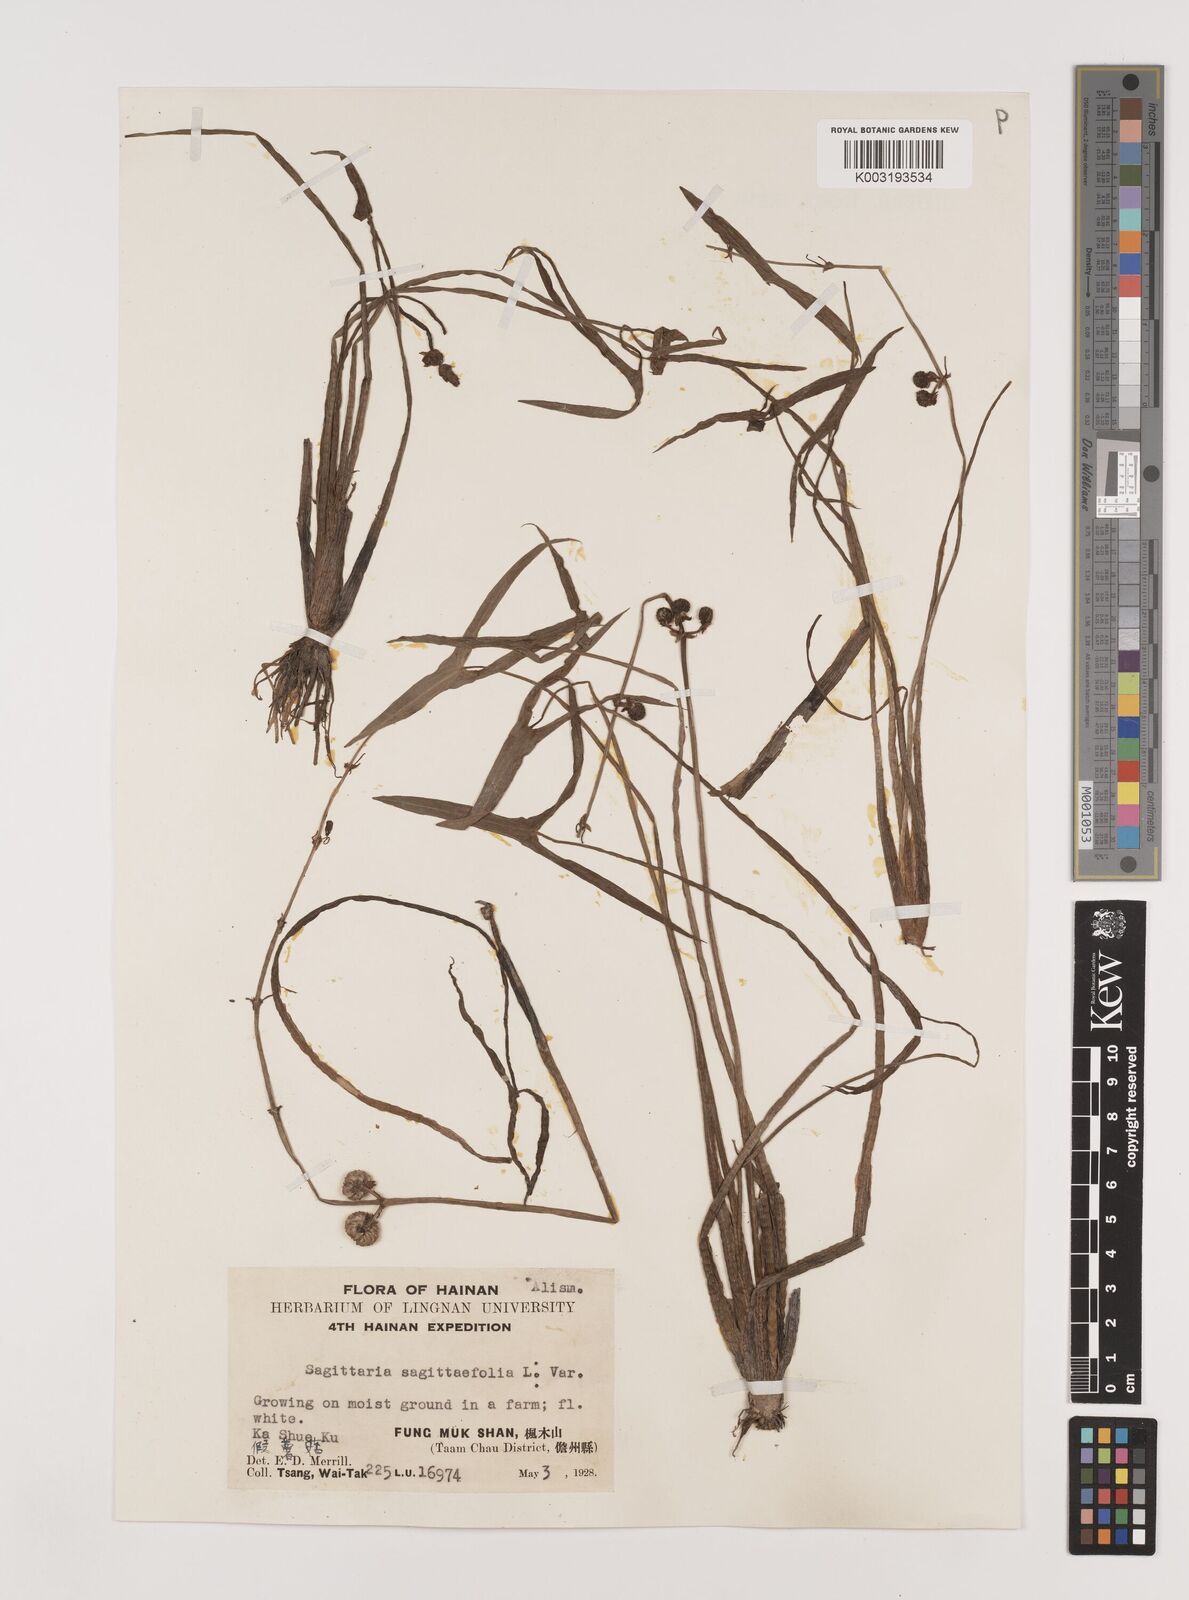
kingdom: Plantae
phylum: Tracheophyta
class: Liliopsida
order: Alismatales
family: Alismataceae
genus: Sagittaria
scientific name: Sagittaria sagittifolia
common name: Arrowhead
